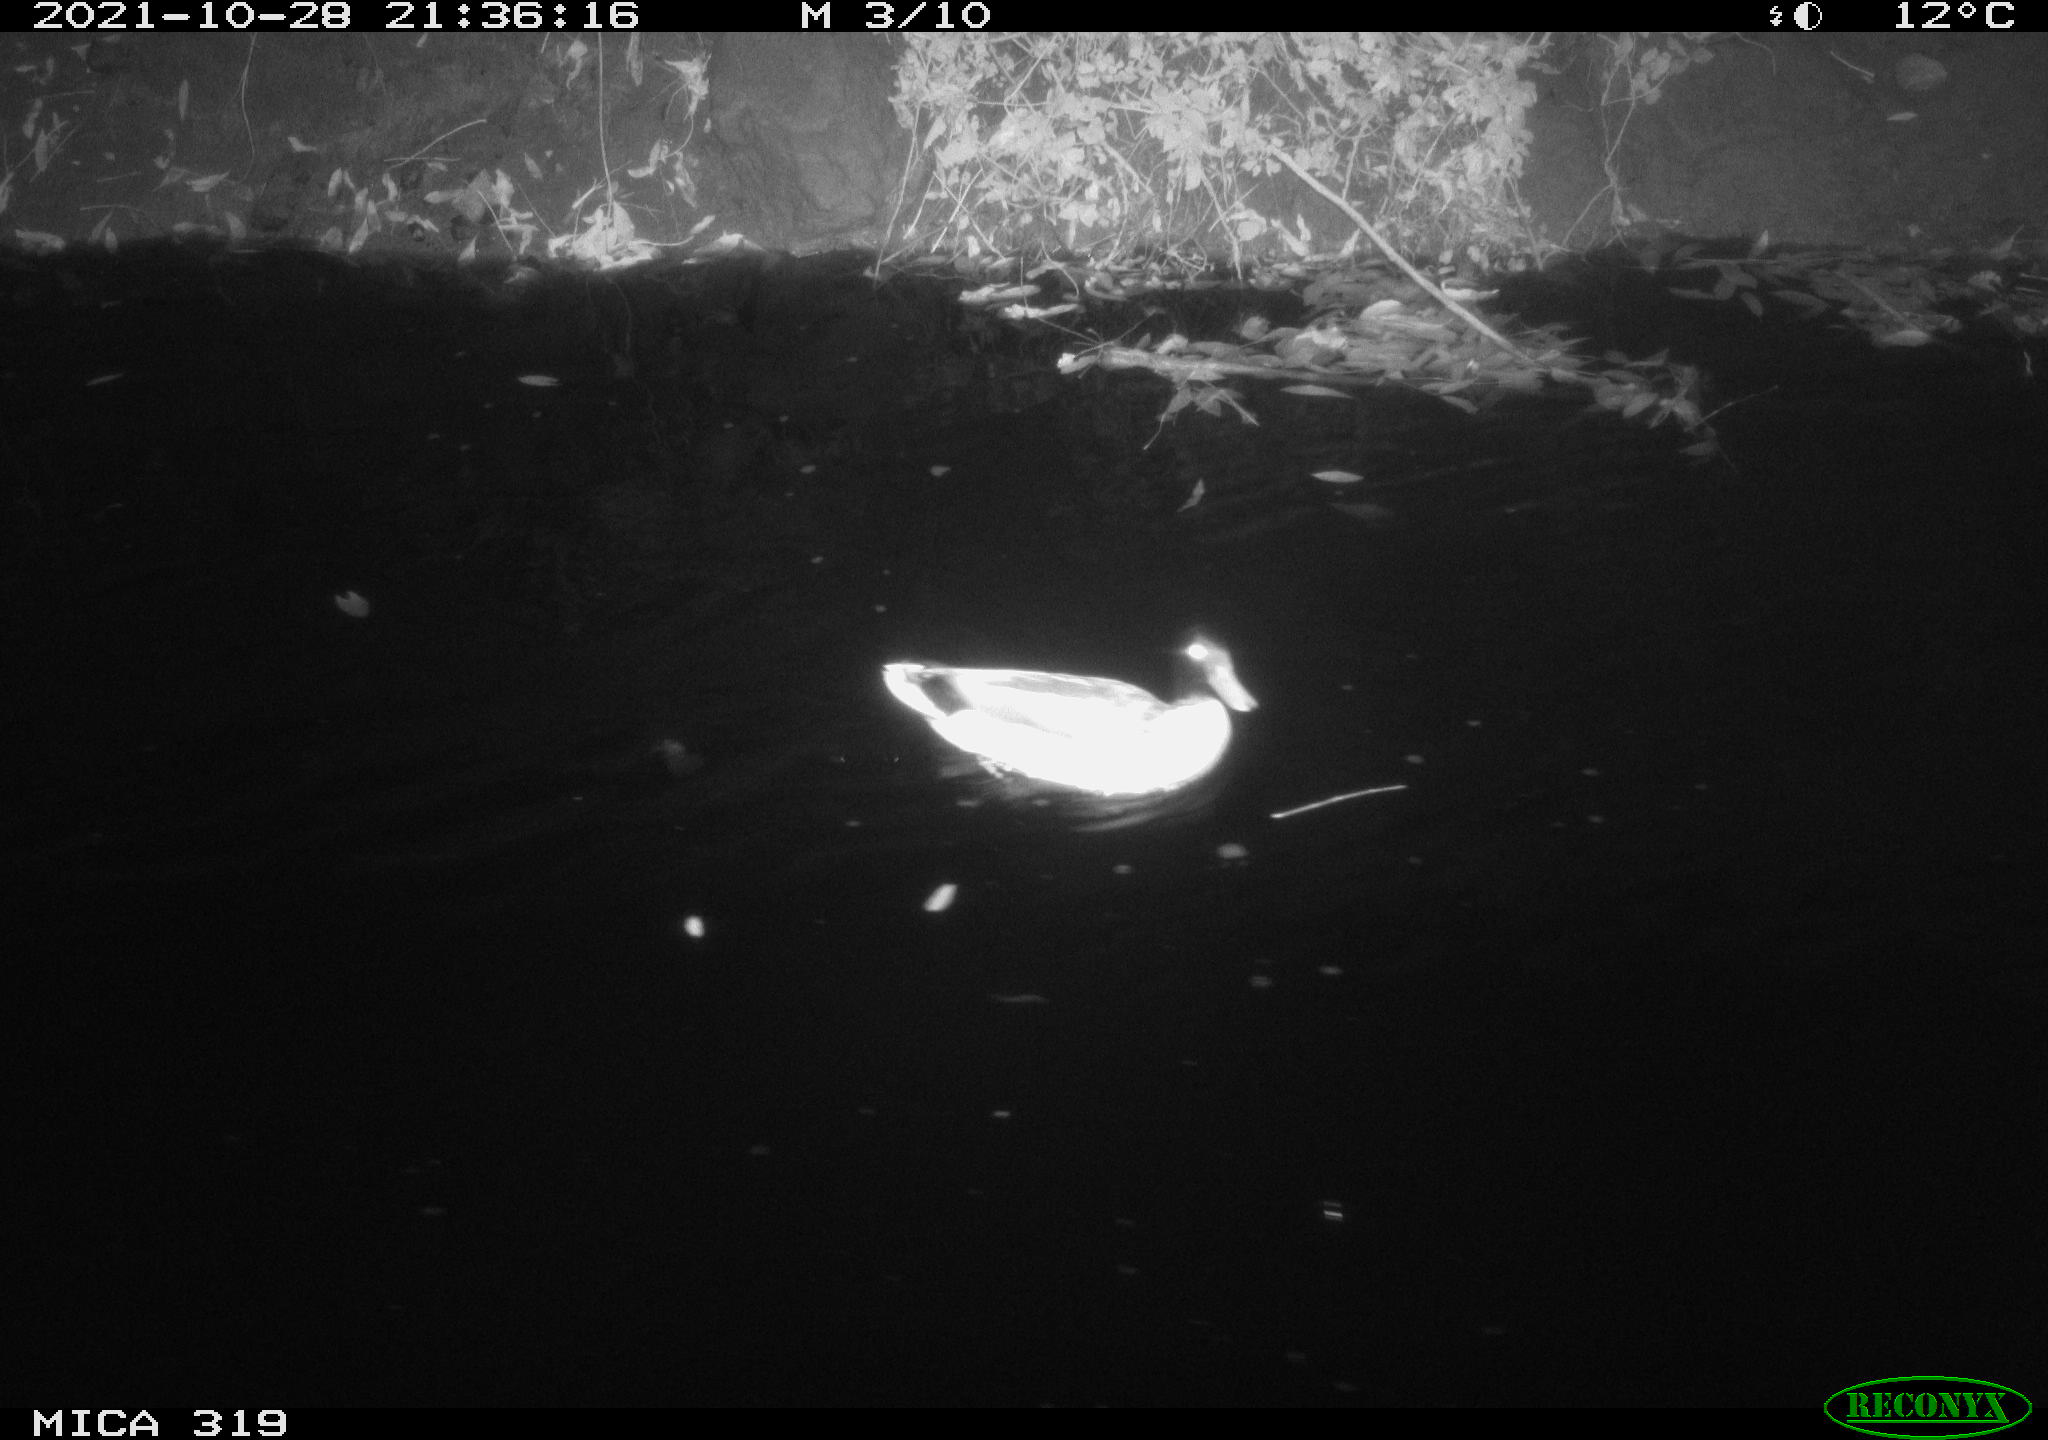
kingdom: Animalia
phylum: Chordata
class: Aves
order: Anseriformes
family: Anatidae
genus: Anas
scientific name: Anas platyrhynchos
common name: Mallard
